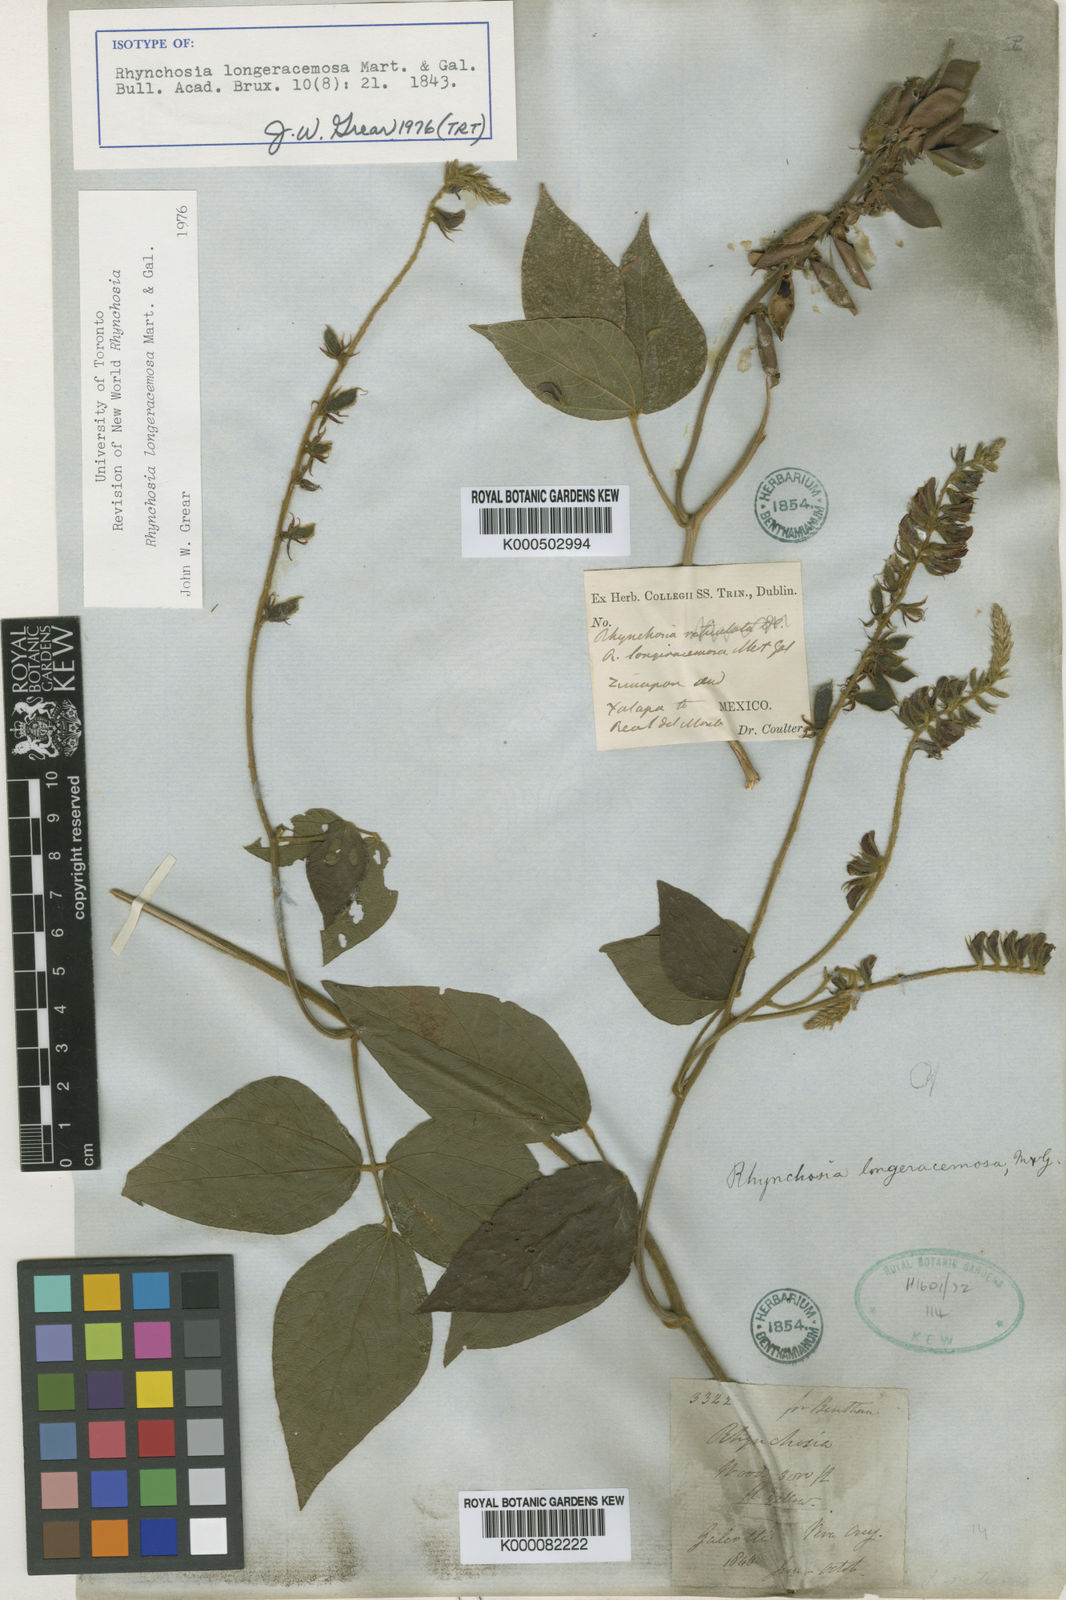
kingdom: Plantae
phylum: Tracheophyta
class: Magnoliopsida
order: Fabales
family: Fabaceae
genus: Rhynchosia
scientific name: Rhynchosia longeracemosa
